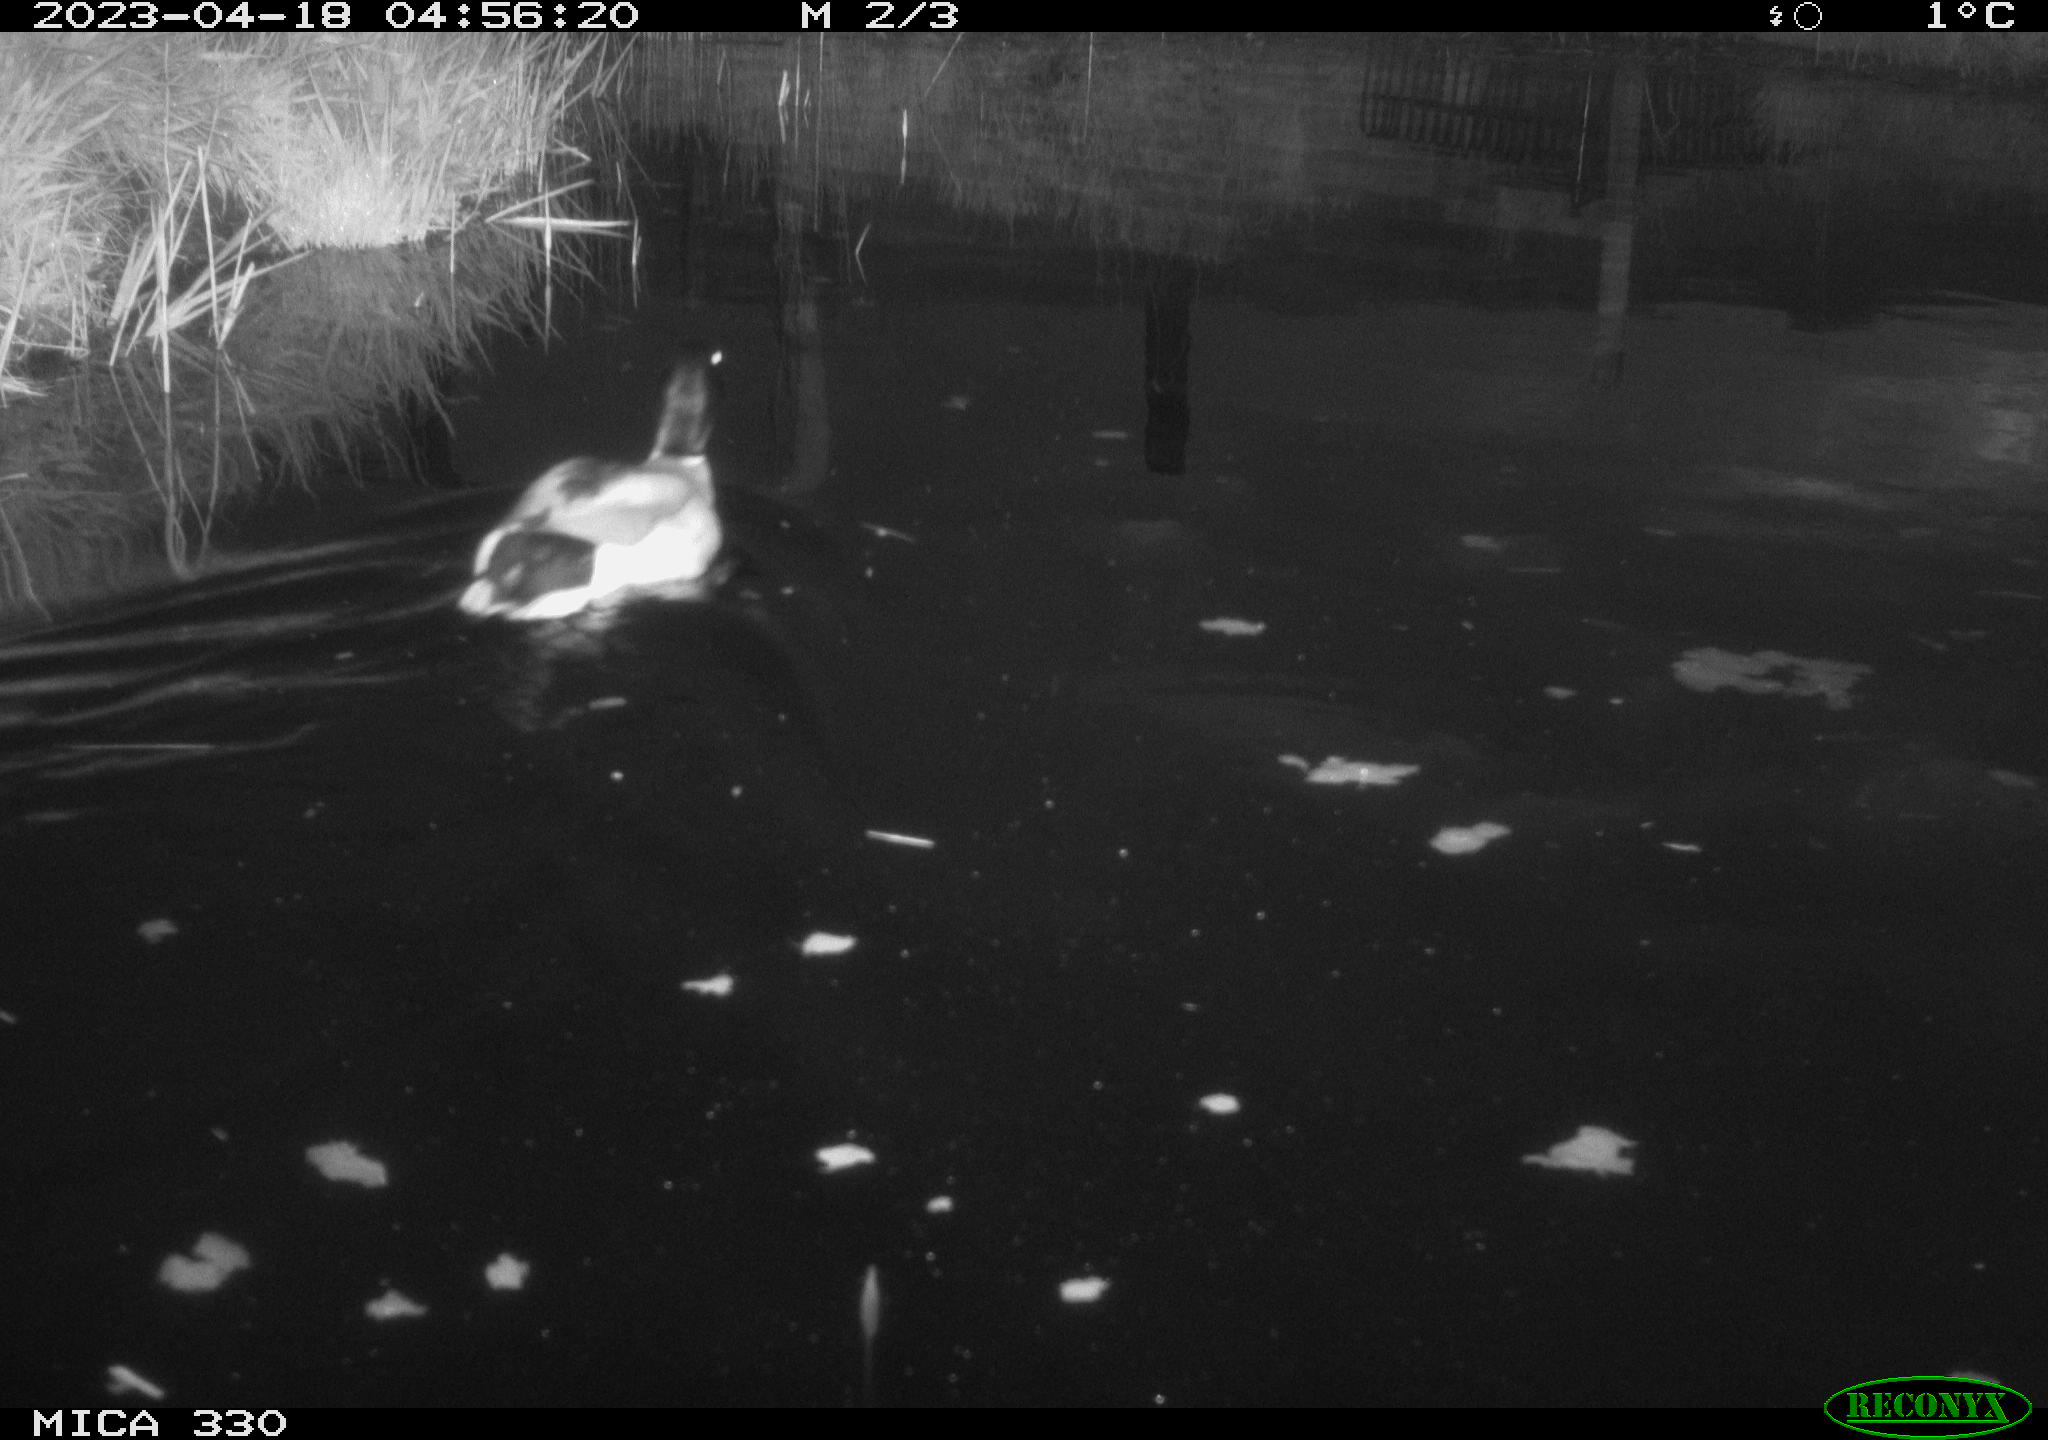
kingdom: Animalia
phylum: Chordata
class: Aves
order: Anseriformes
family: Anatidae
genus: Anas
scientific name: Anas
